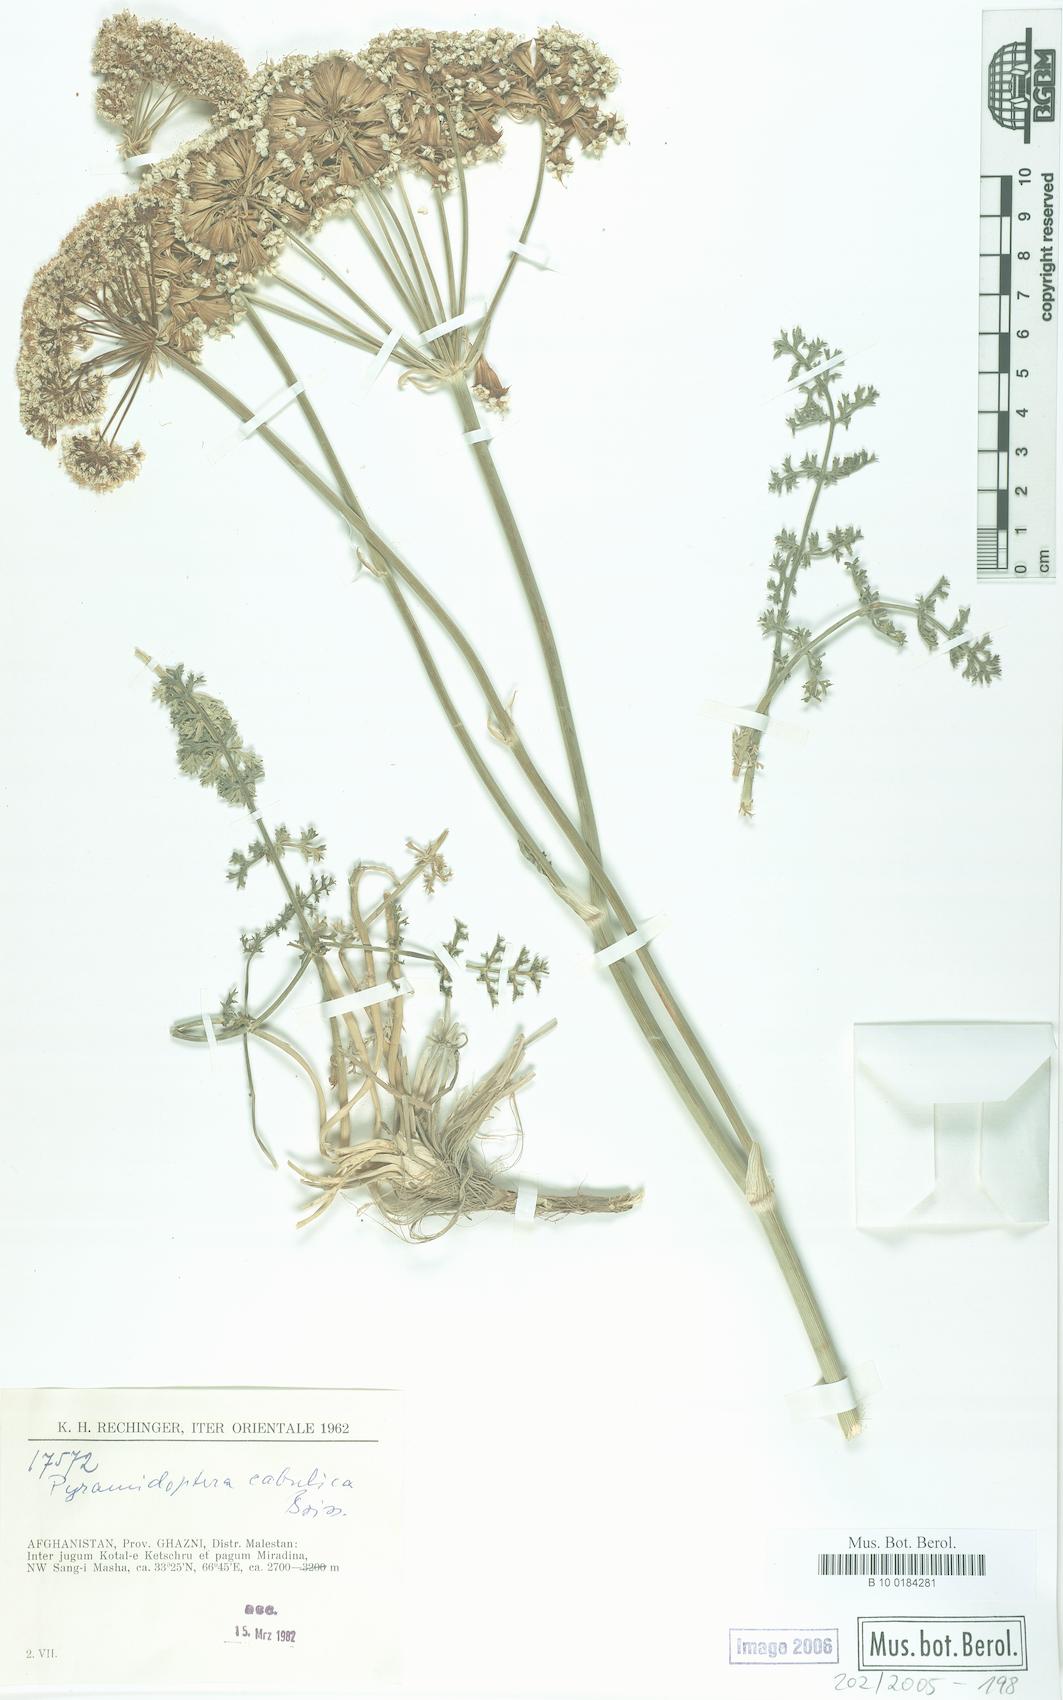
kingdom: Plantae
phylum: Tracheophyta
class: Magnoliopsida
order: Apiales
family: Apiaceae
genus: Pyramidoptera
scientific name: Pyramidoptera cabulica
